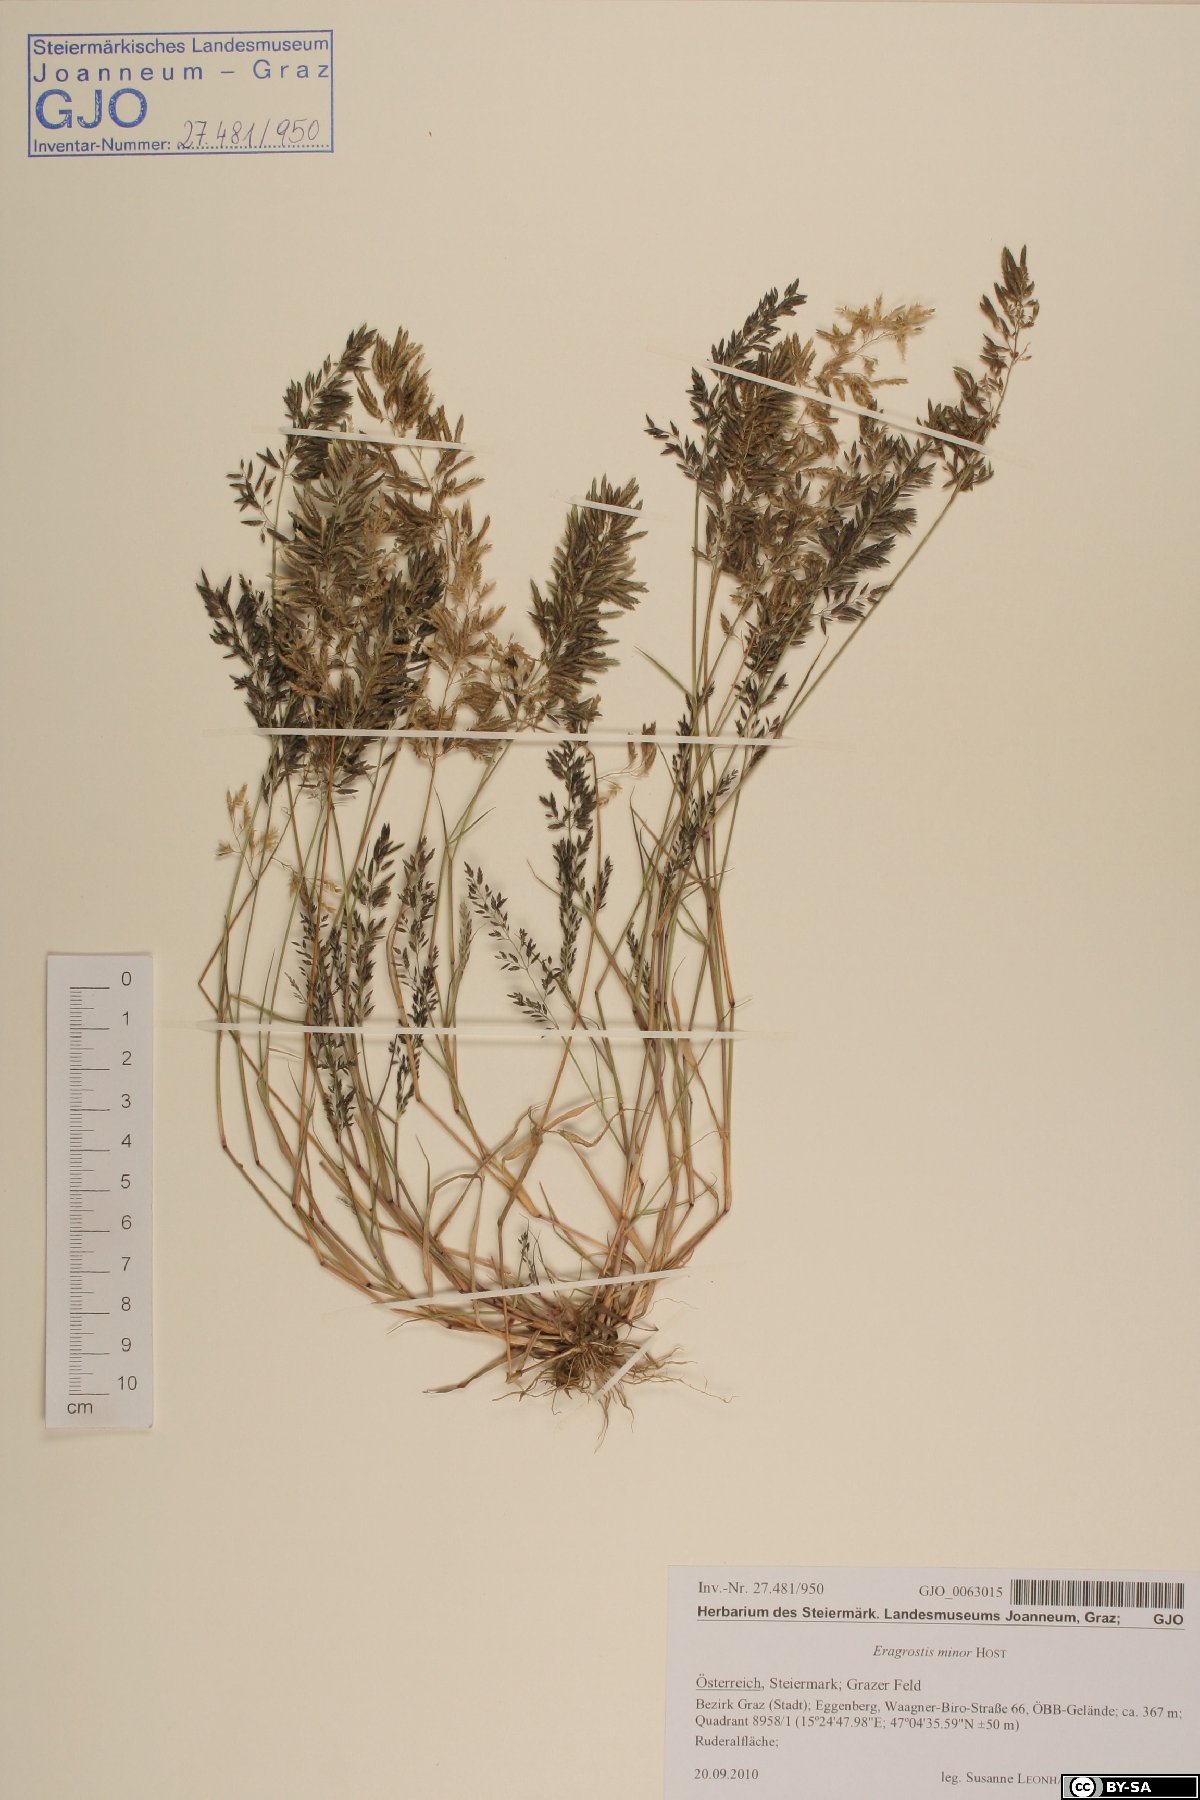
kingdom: Plantae
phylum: Tracheophyta
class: Liliopsida
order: Poales
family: Poaceae
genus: Eragrostis
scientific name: Eragrostis minor
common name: Small love-grass
